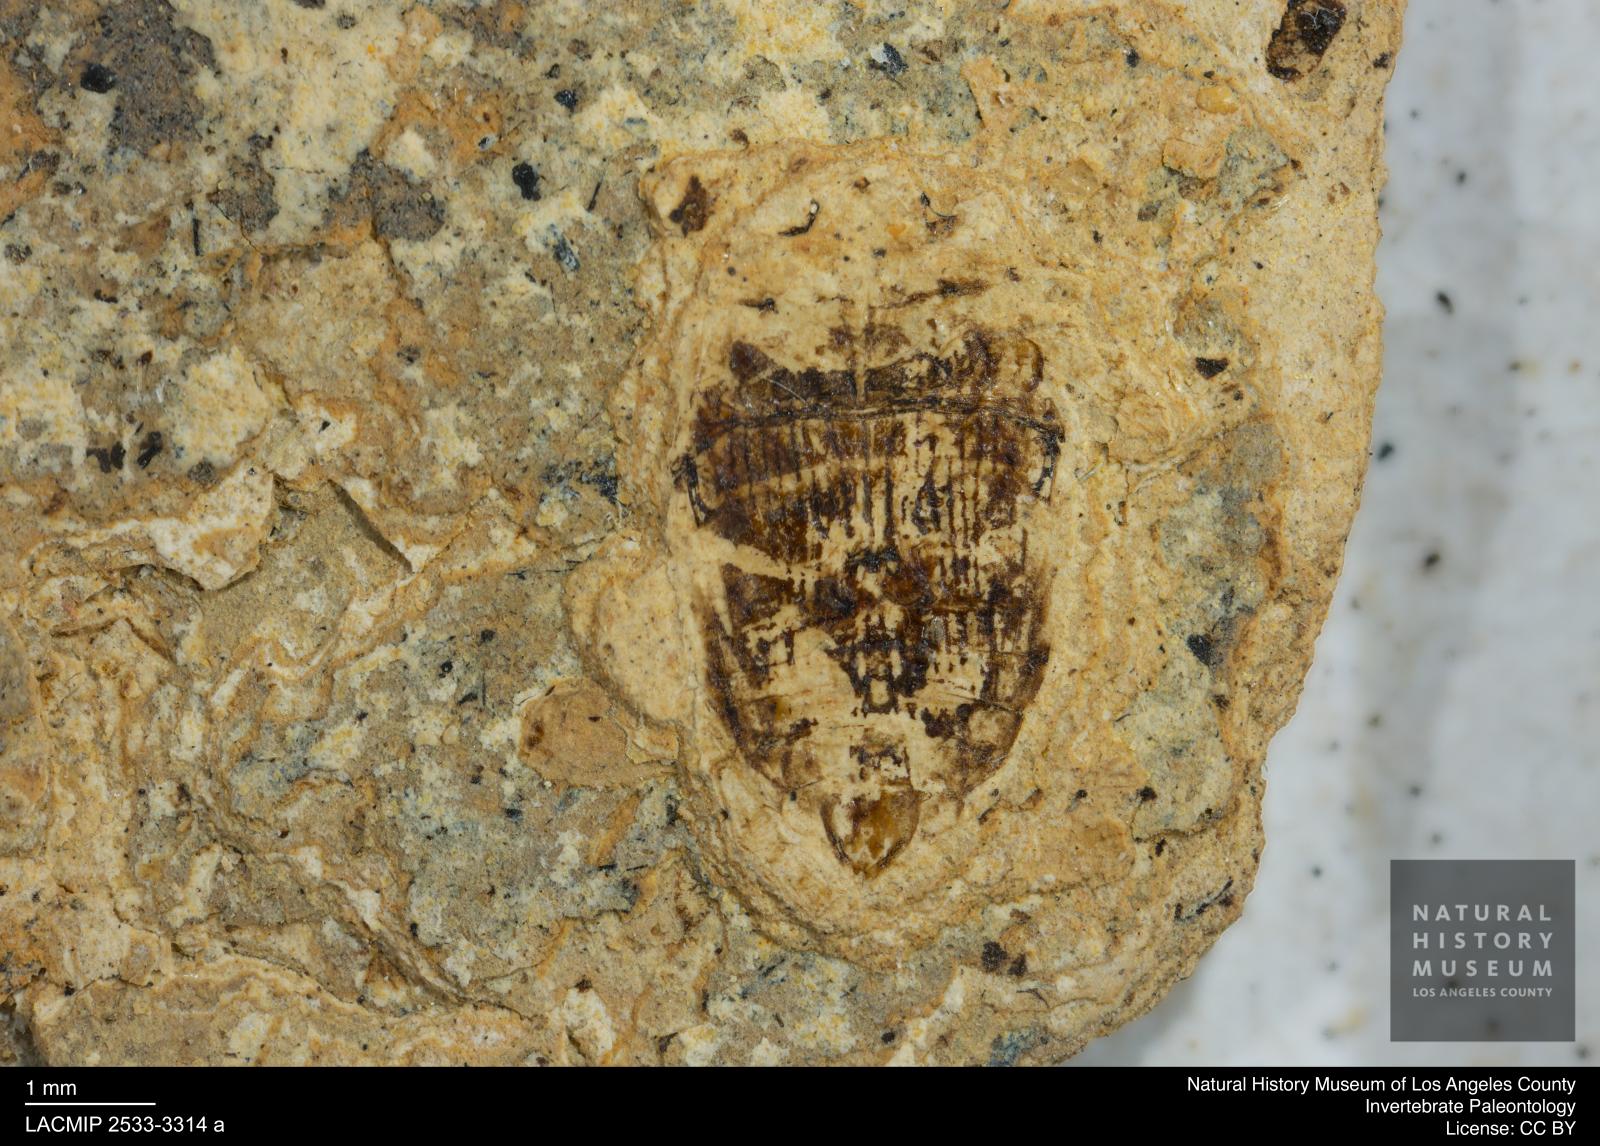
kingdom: Animalia
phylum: Arthropoda
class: Insecta
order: Coleoptera
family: Dytiscidae
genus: Laccophilus
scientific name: Laccophilus Palaeogyrinus strigatus
